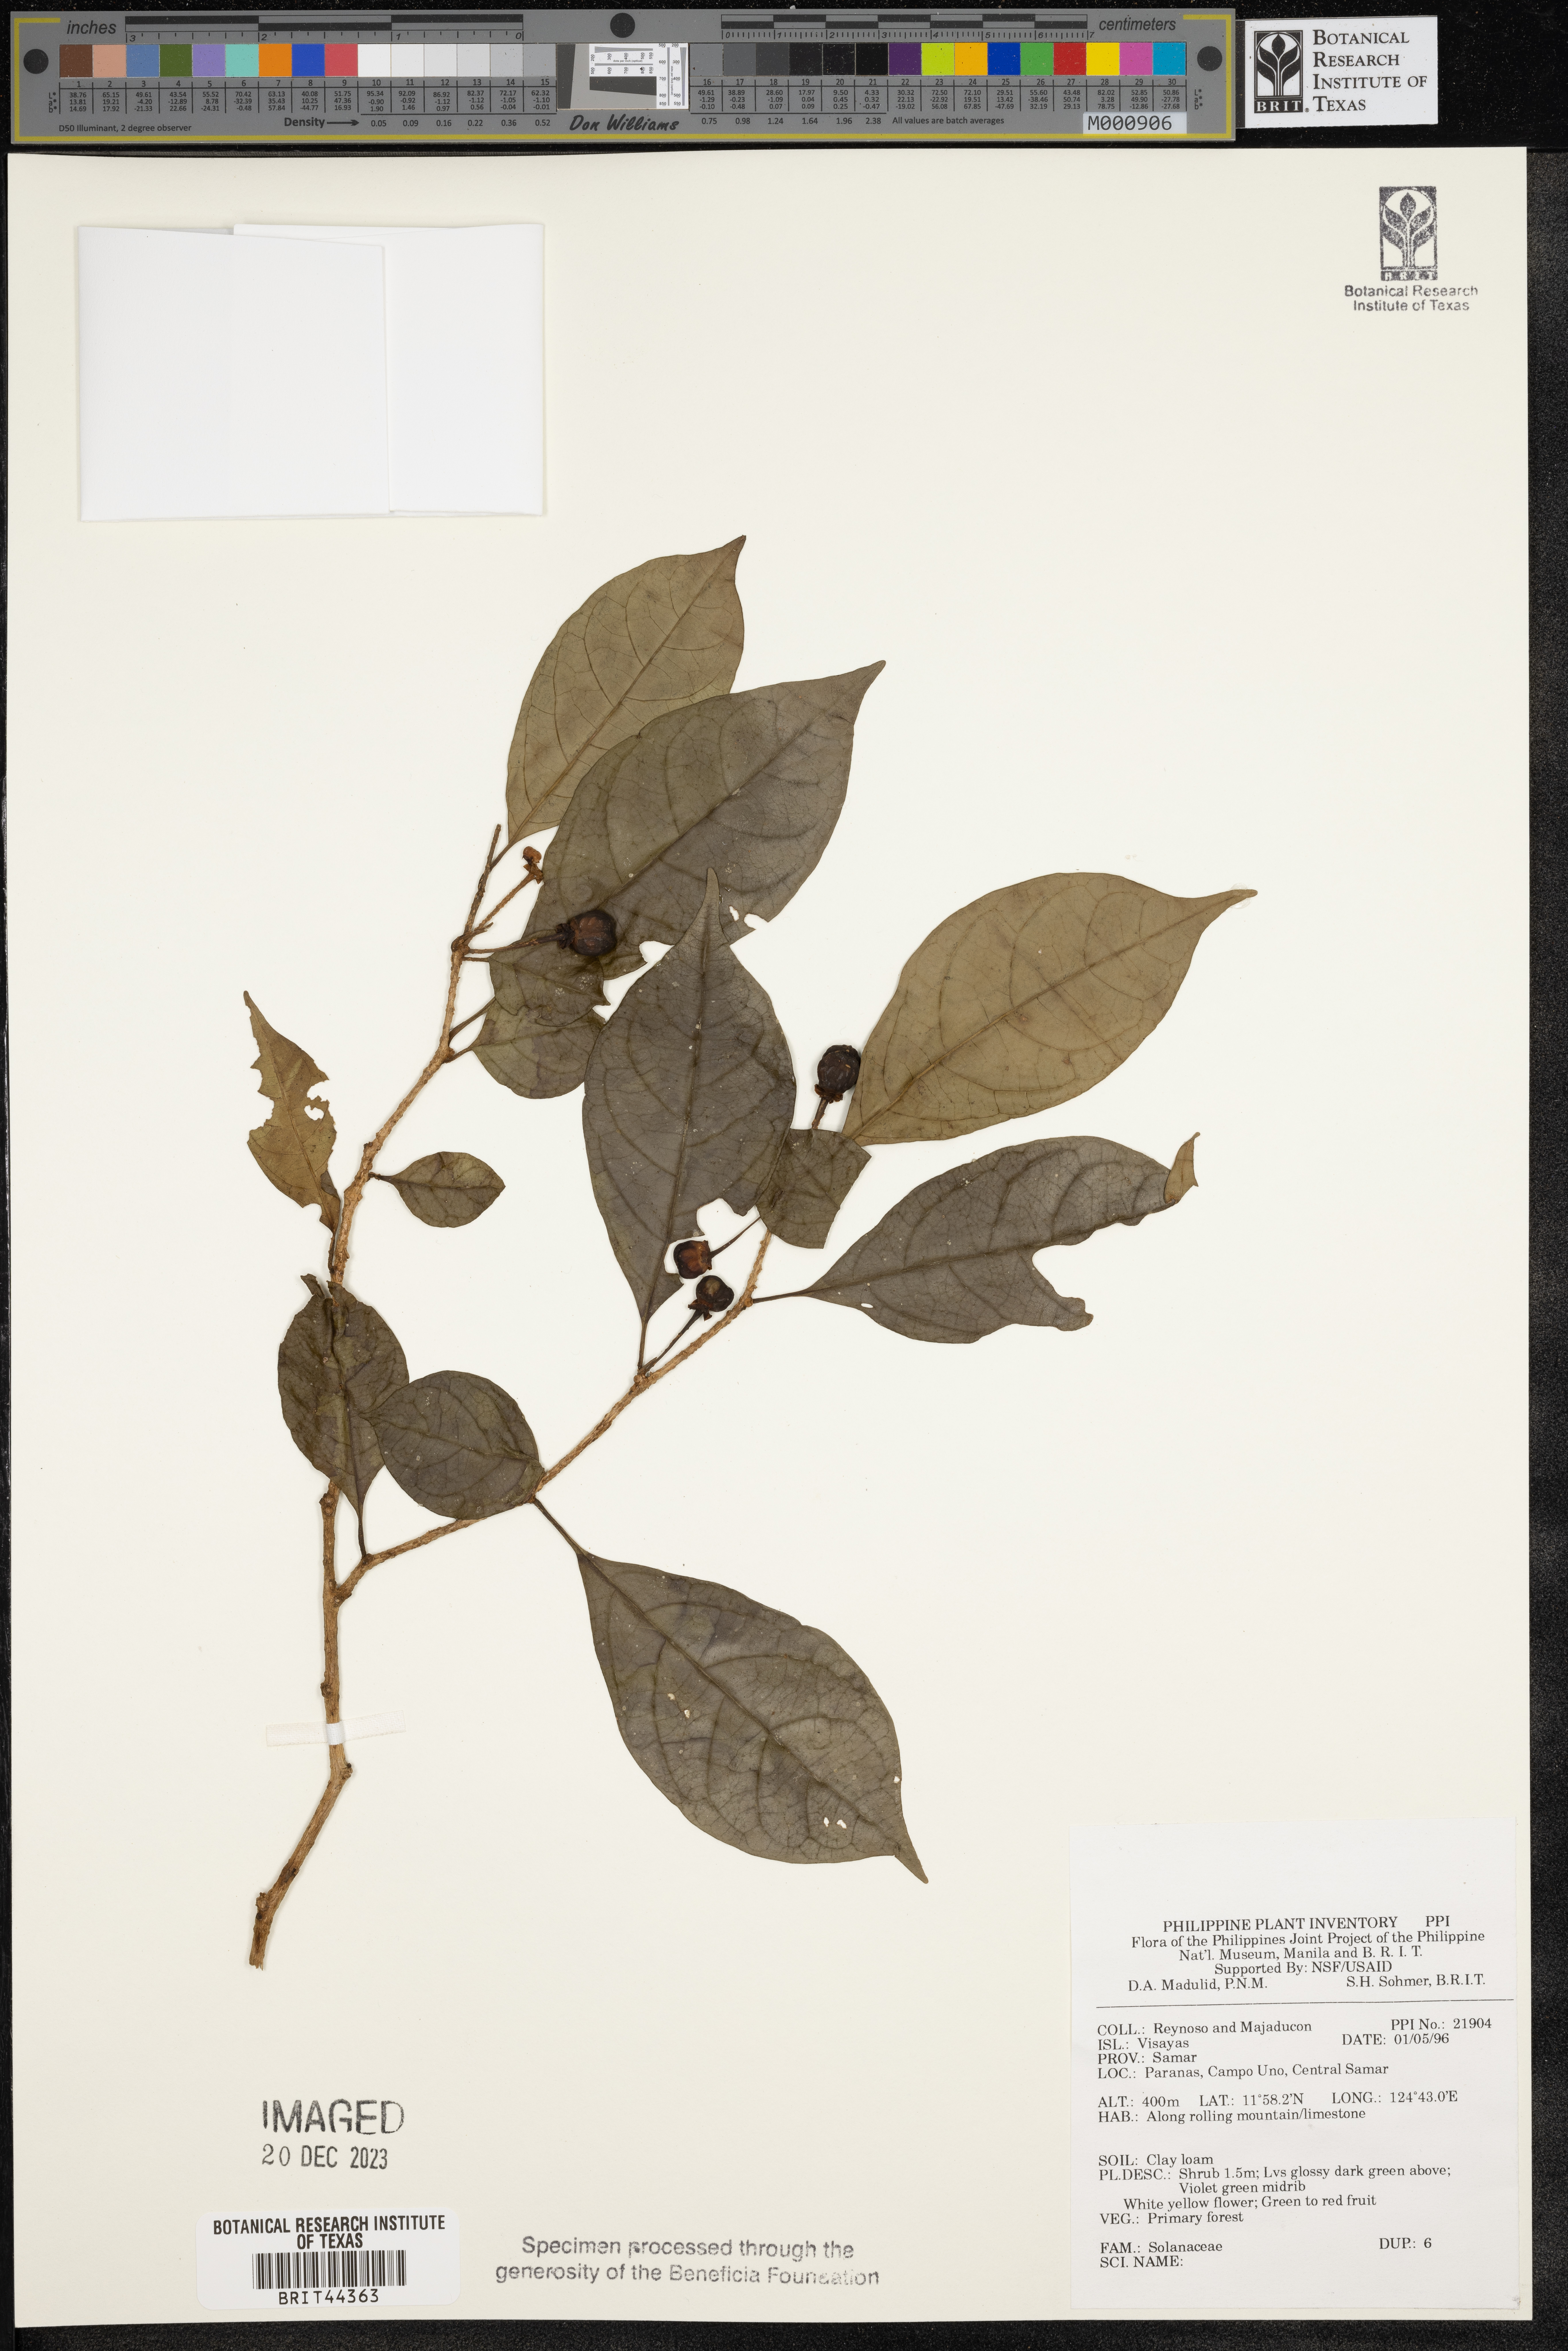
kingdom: Plantae
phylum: Tracheophyta
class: Magnoliopsida
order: Solanales
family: Solanaceae
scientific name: Solanaceae
